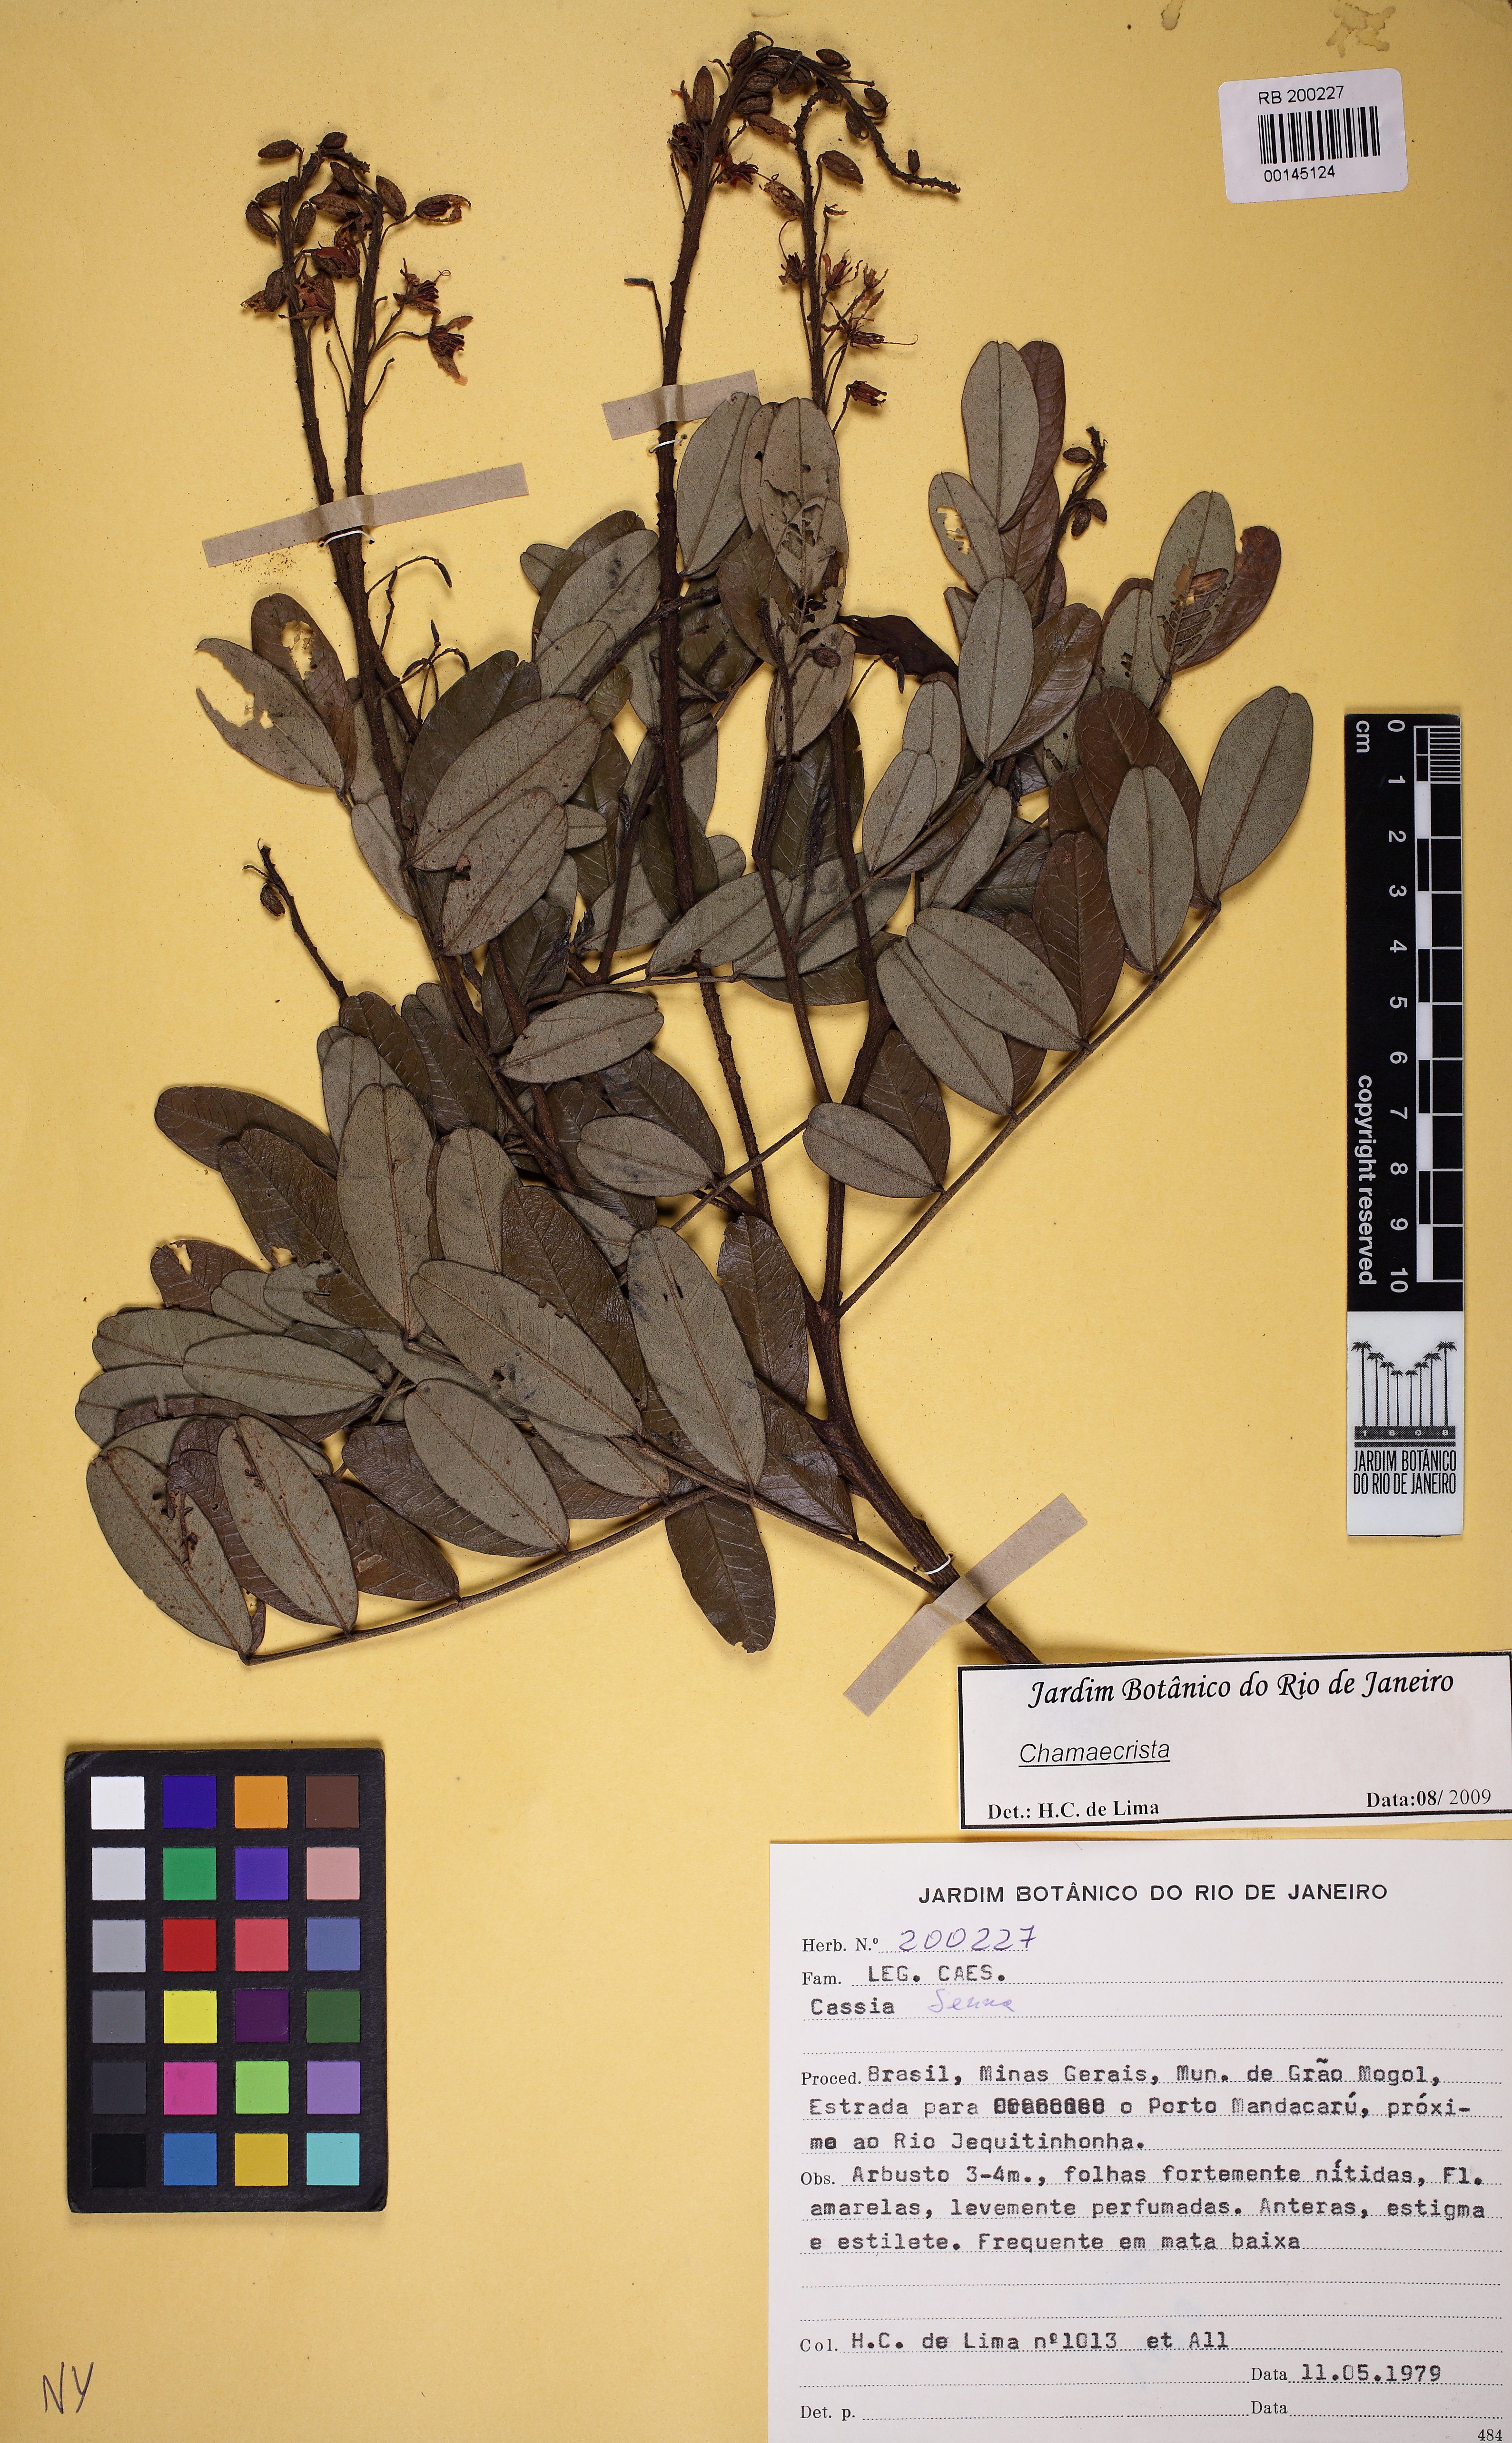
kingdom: Plantae
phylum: Tracheophyta
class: Magnoliopsida
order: Fabales
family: Fabaceae
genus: Chamaecrista
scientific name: Chamaecrista
